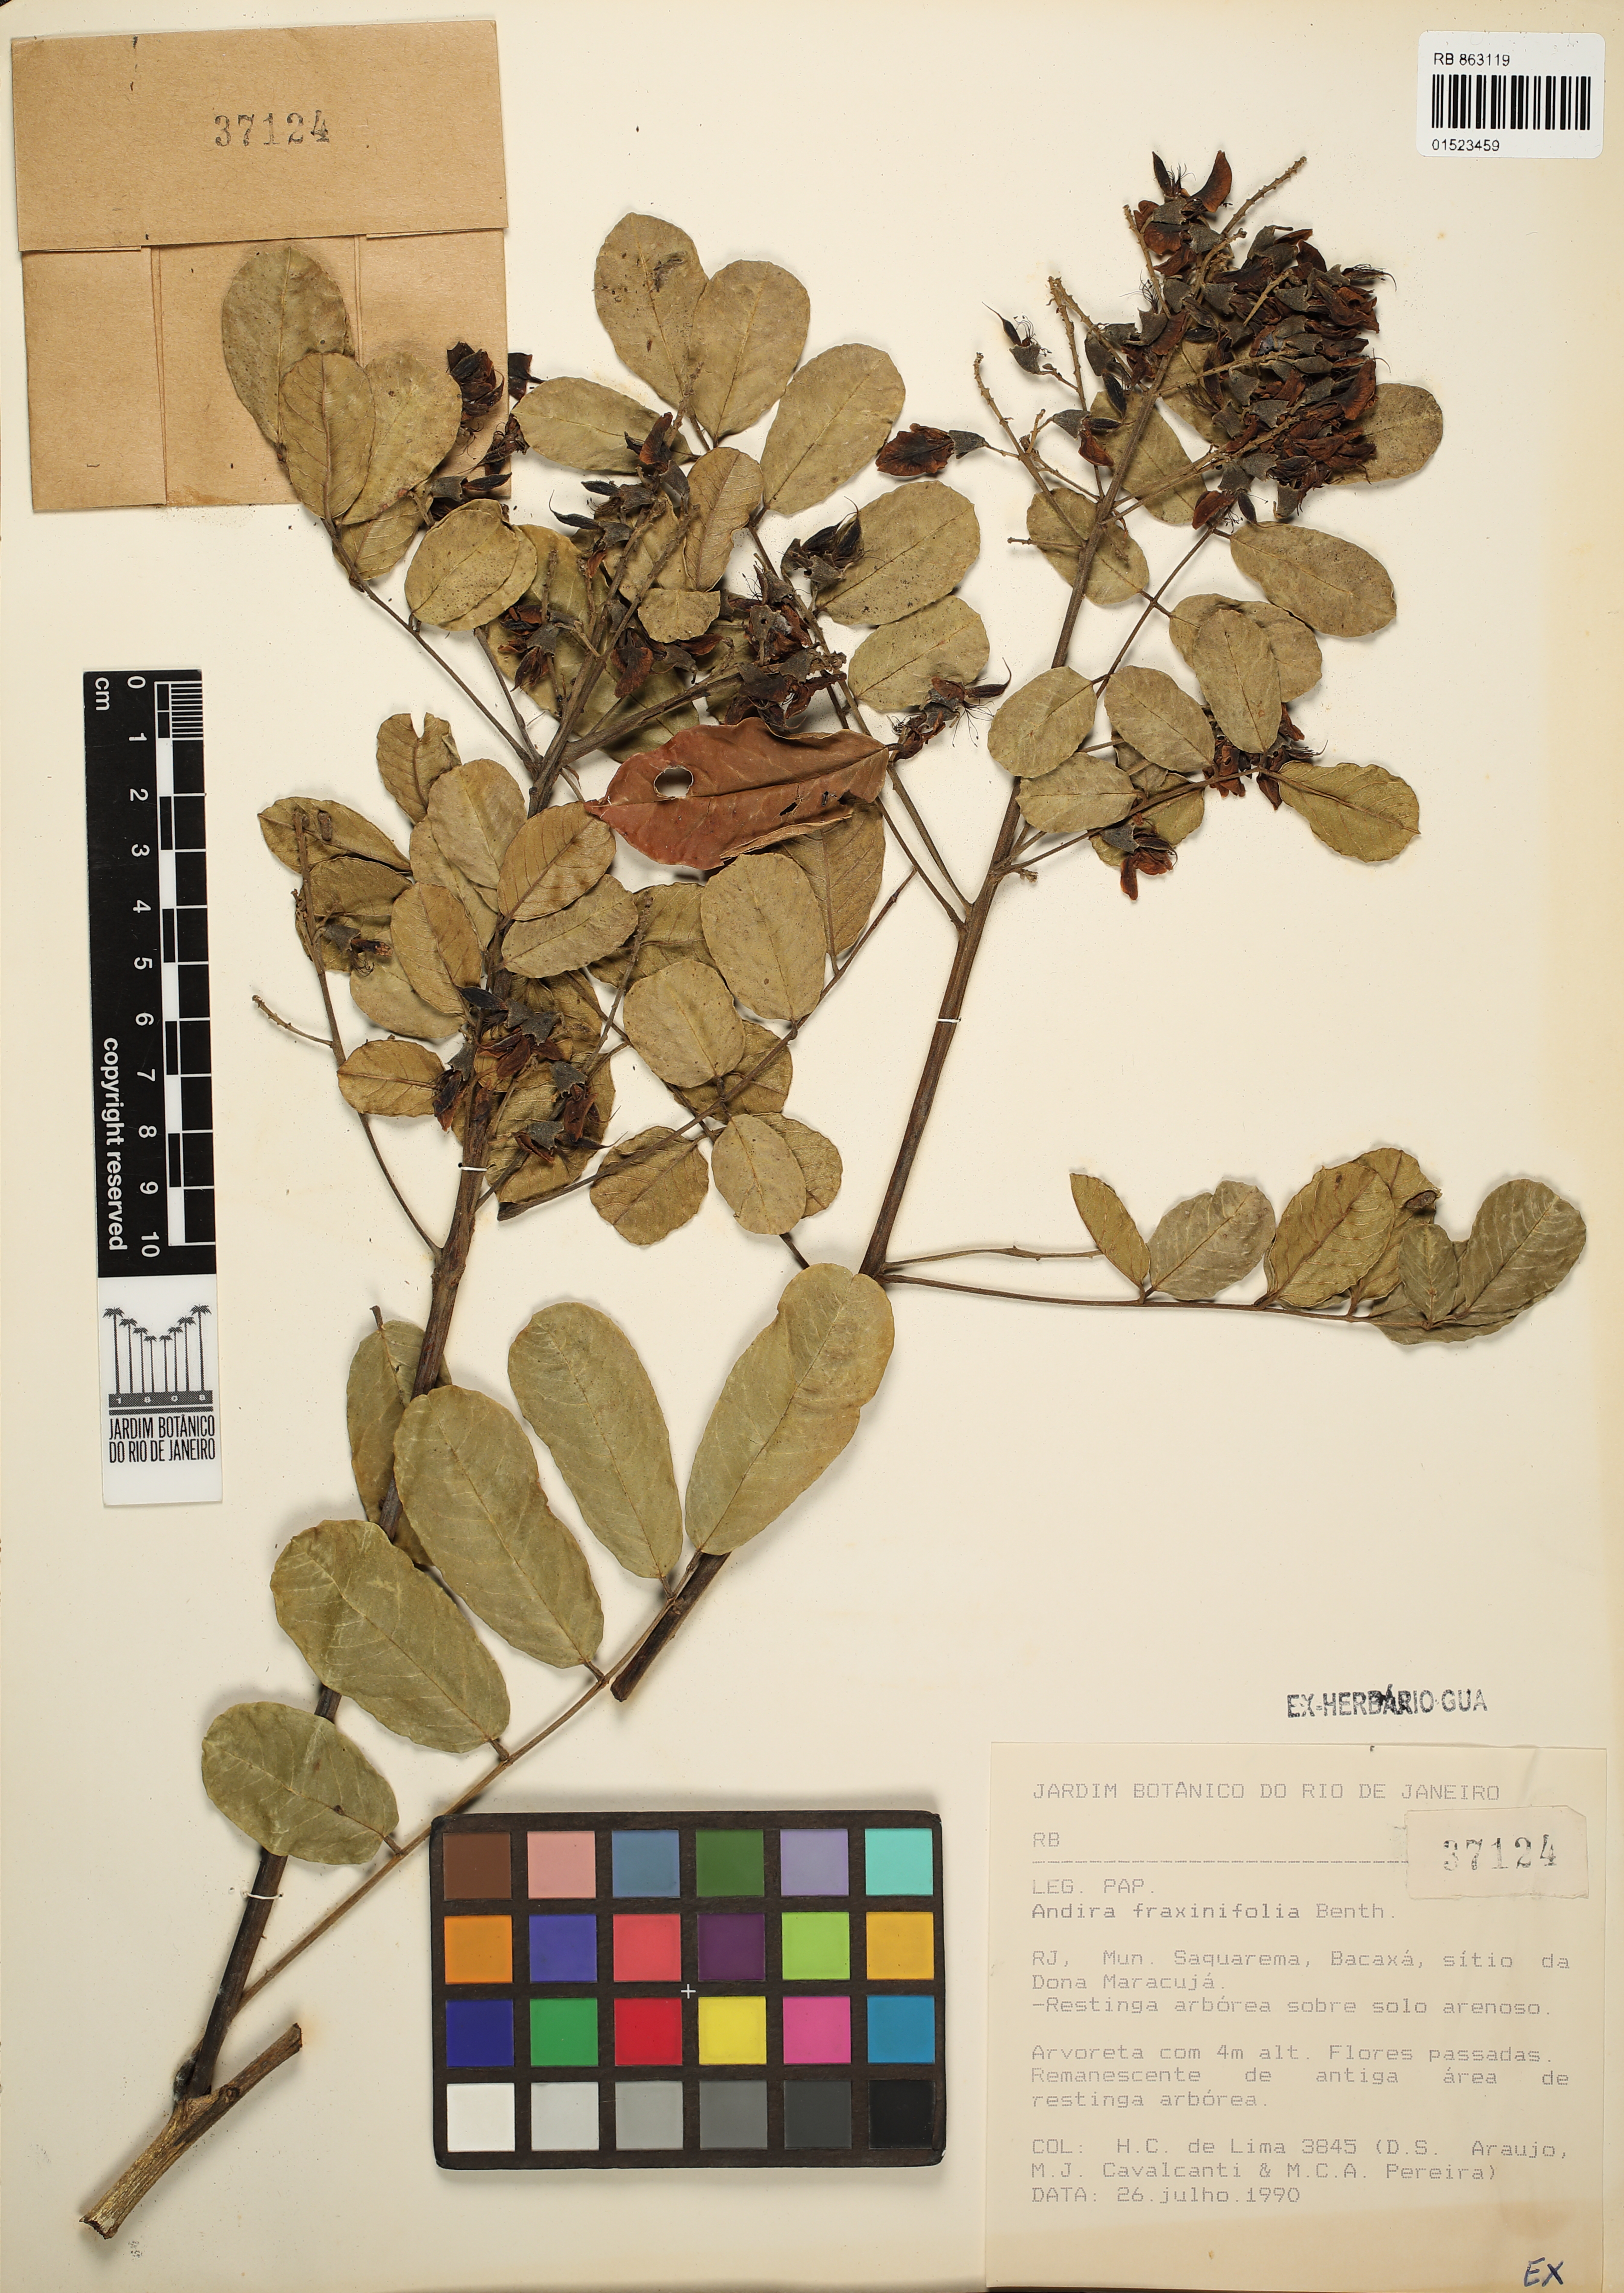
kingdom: Plantae
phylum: Tracheophyta
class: Magnoliopsida
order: Fabales
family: Fabaceae
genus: Andira
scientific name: Andira fraxinifolia
